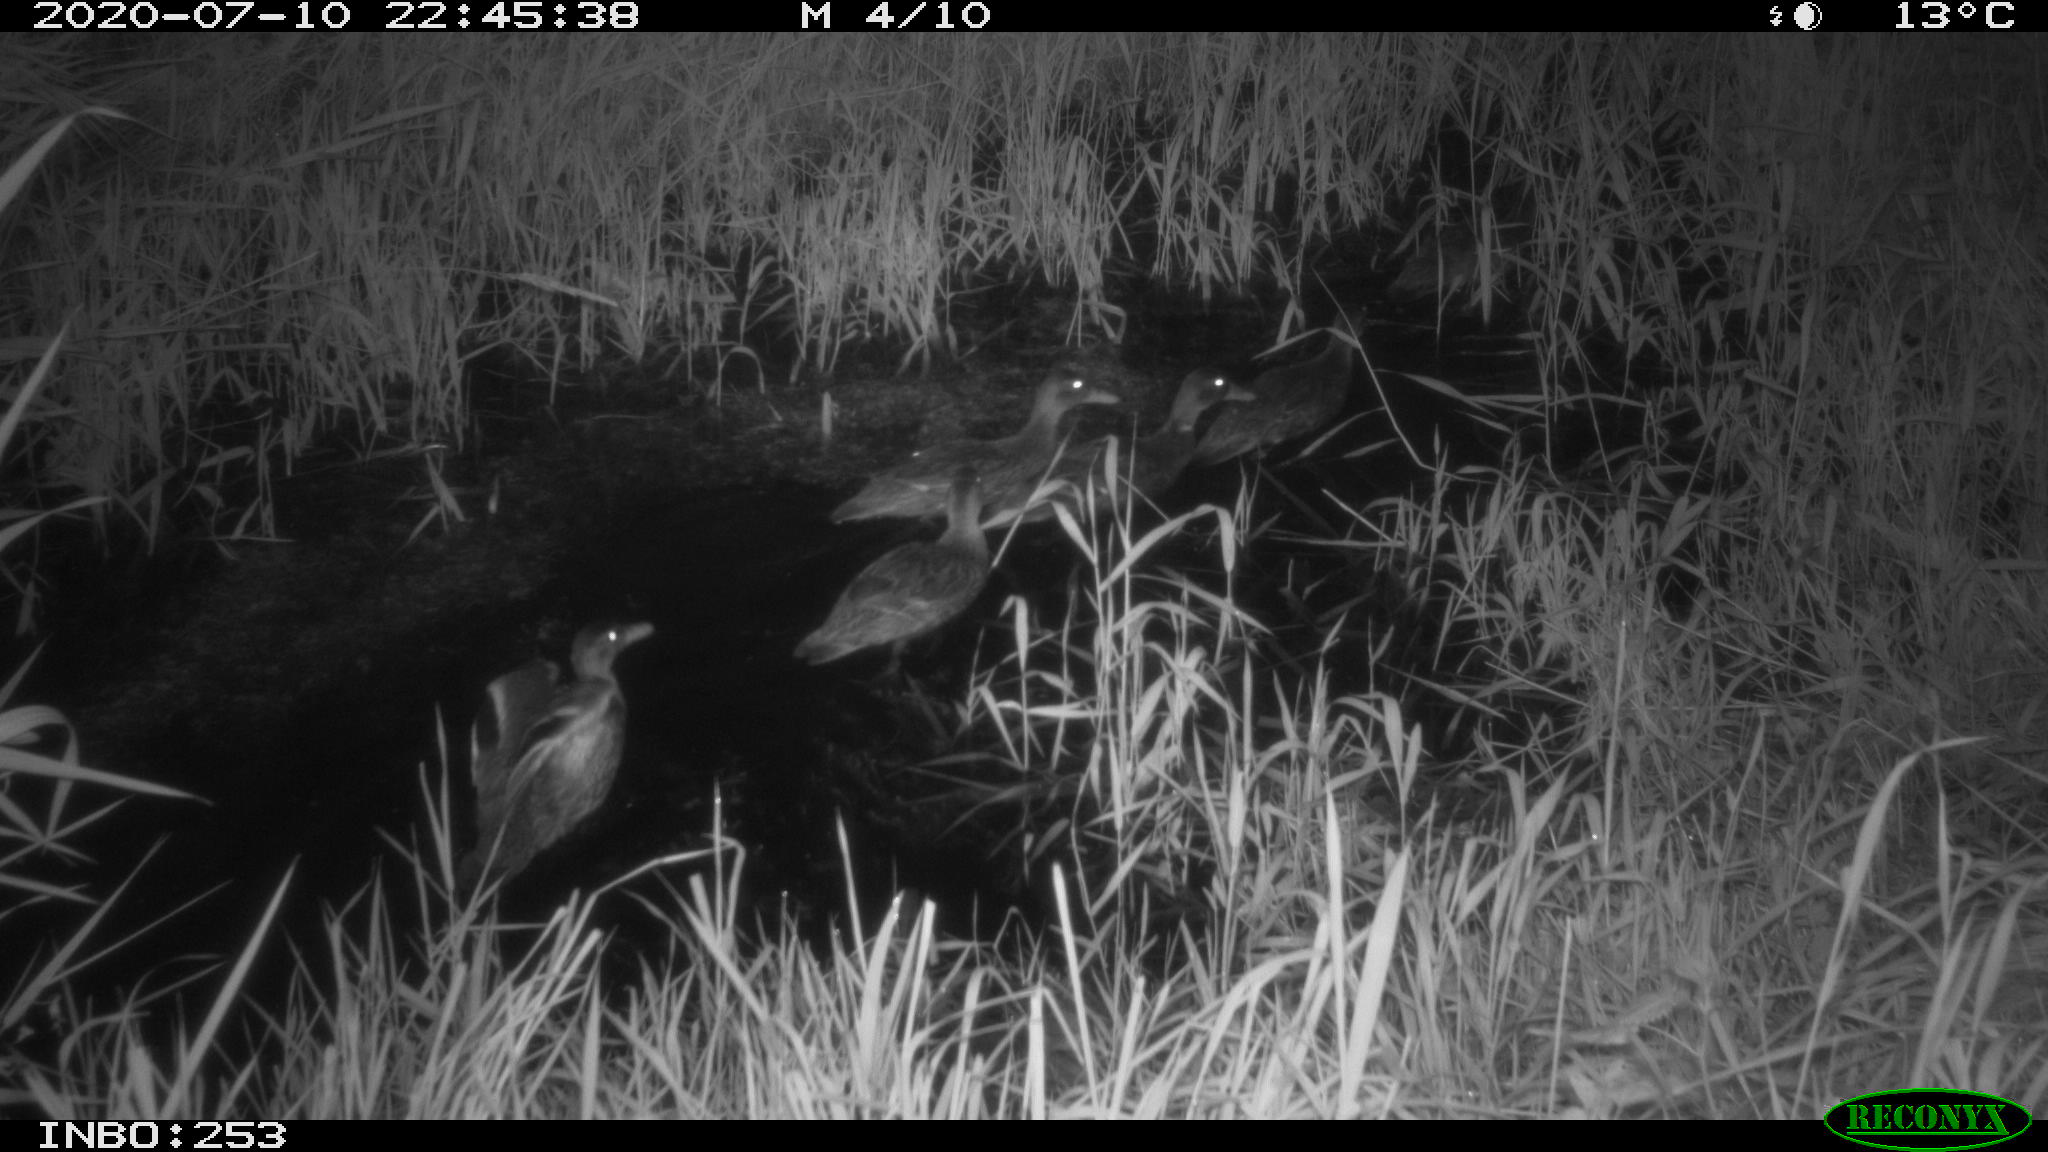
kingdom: Animalia
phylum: Chordata
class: Aves
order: Anseriformes
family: Anatidae
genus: Anas
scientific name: Anas platyrhynchos
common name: Mallard
